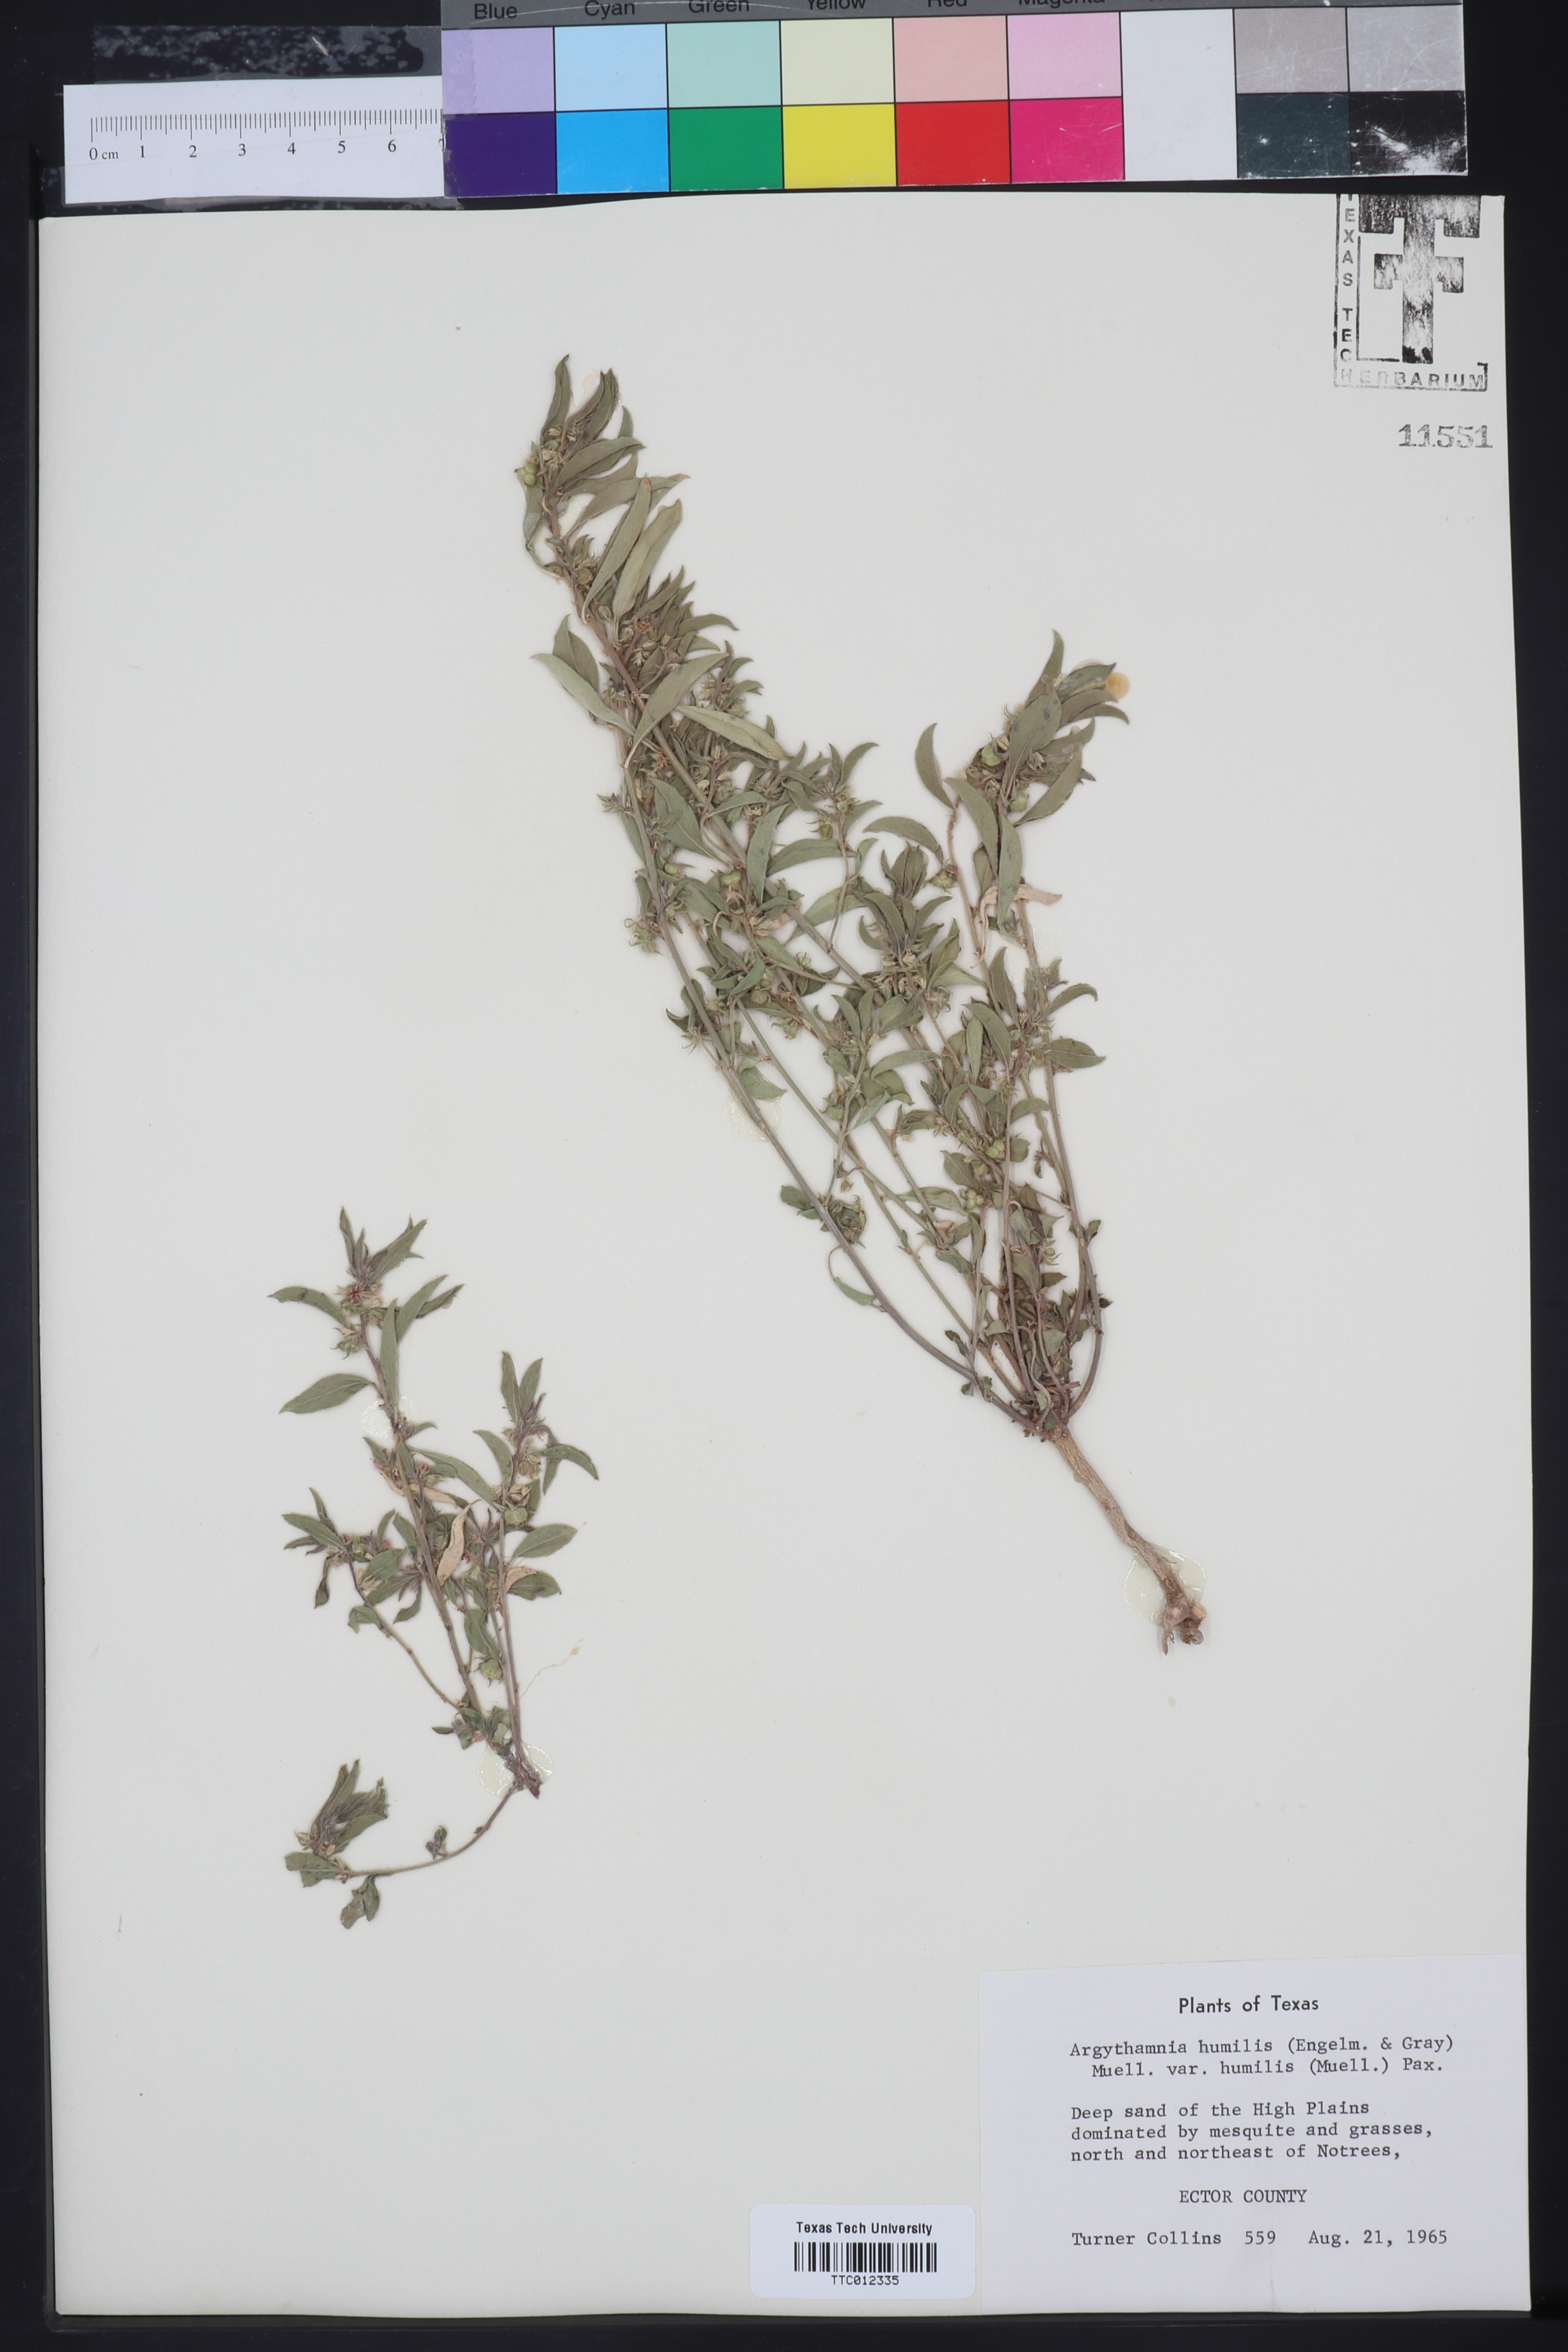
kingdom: Plantae
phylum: Tracheophyta
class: Magnoliopsida
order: Malpighiales
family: Euphorbiaceae
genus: Ditaxis
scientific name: Ditaxis humilis
